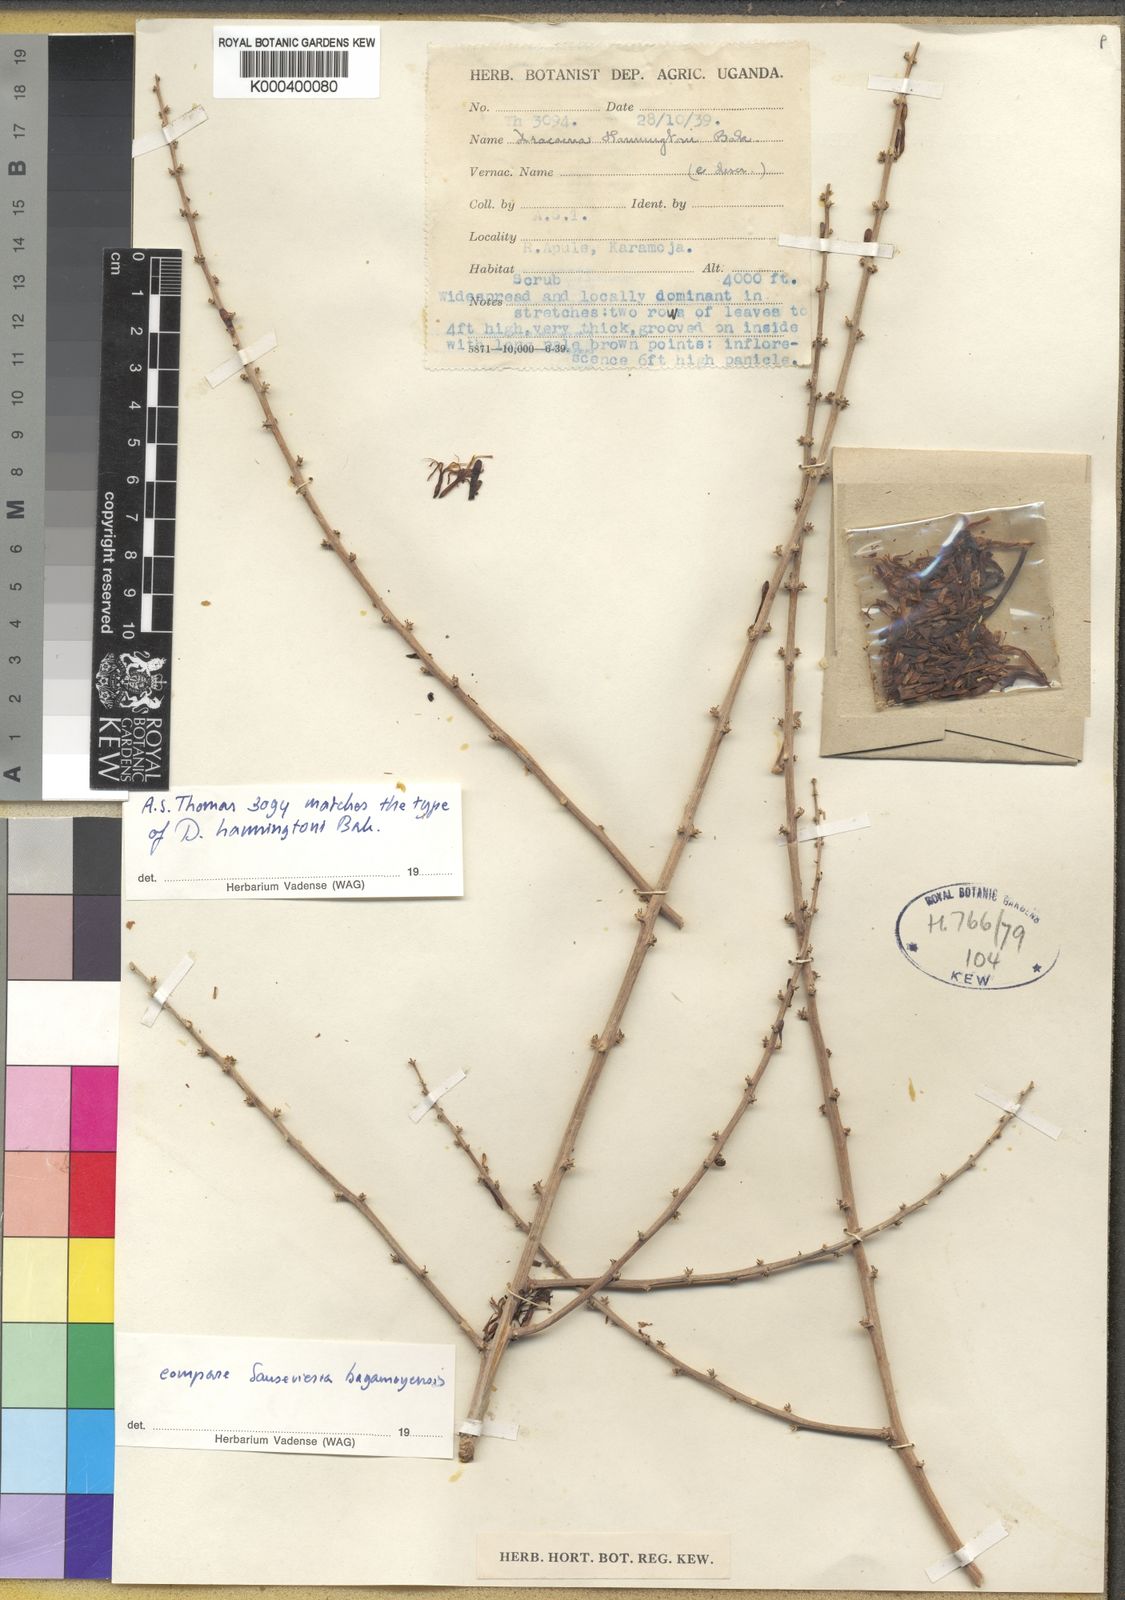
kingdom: Plantae
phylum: Tracheophyta
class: Liliopsida
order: Asparagales
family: Asparagaceae
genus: Dracaena
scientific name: Dracaena hanningtonii
